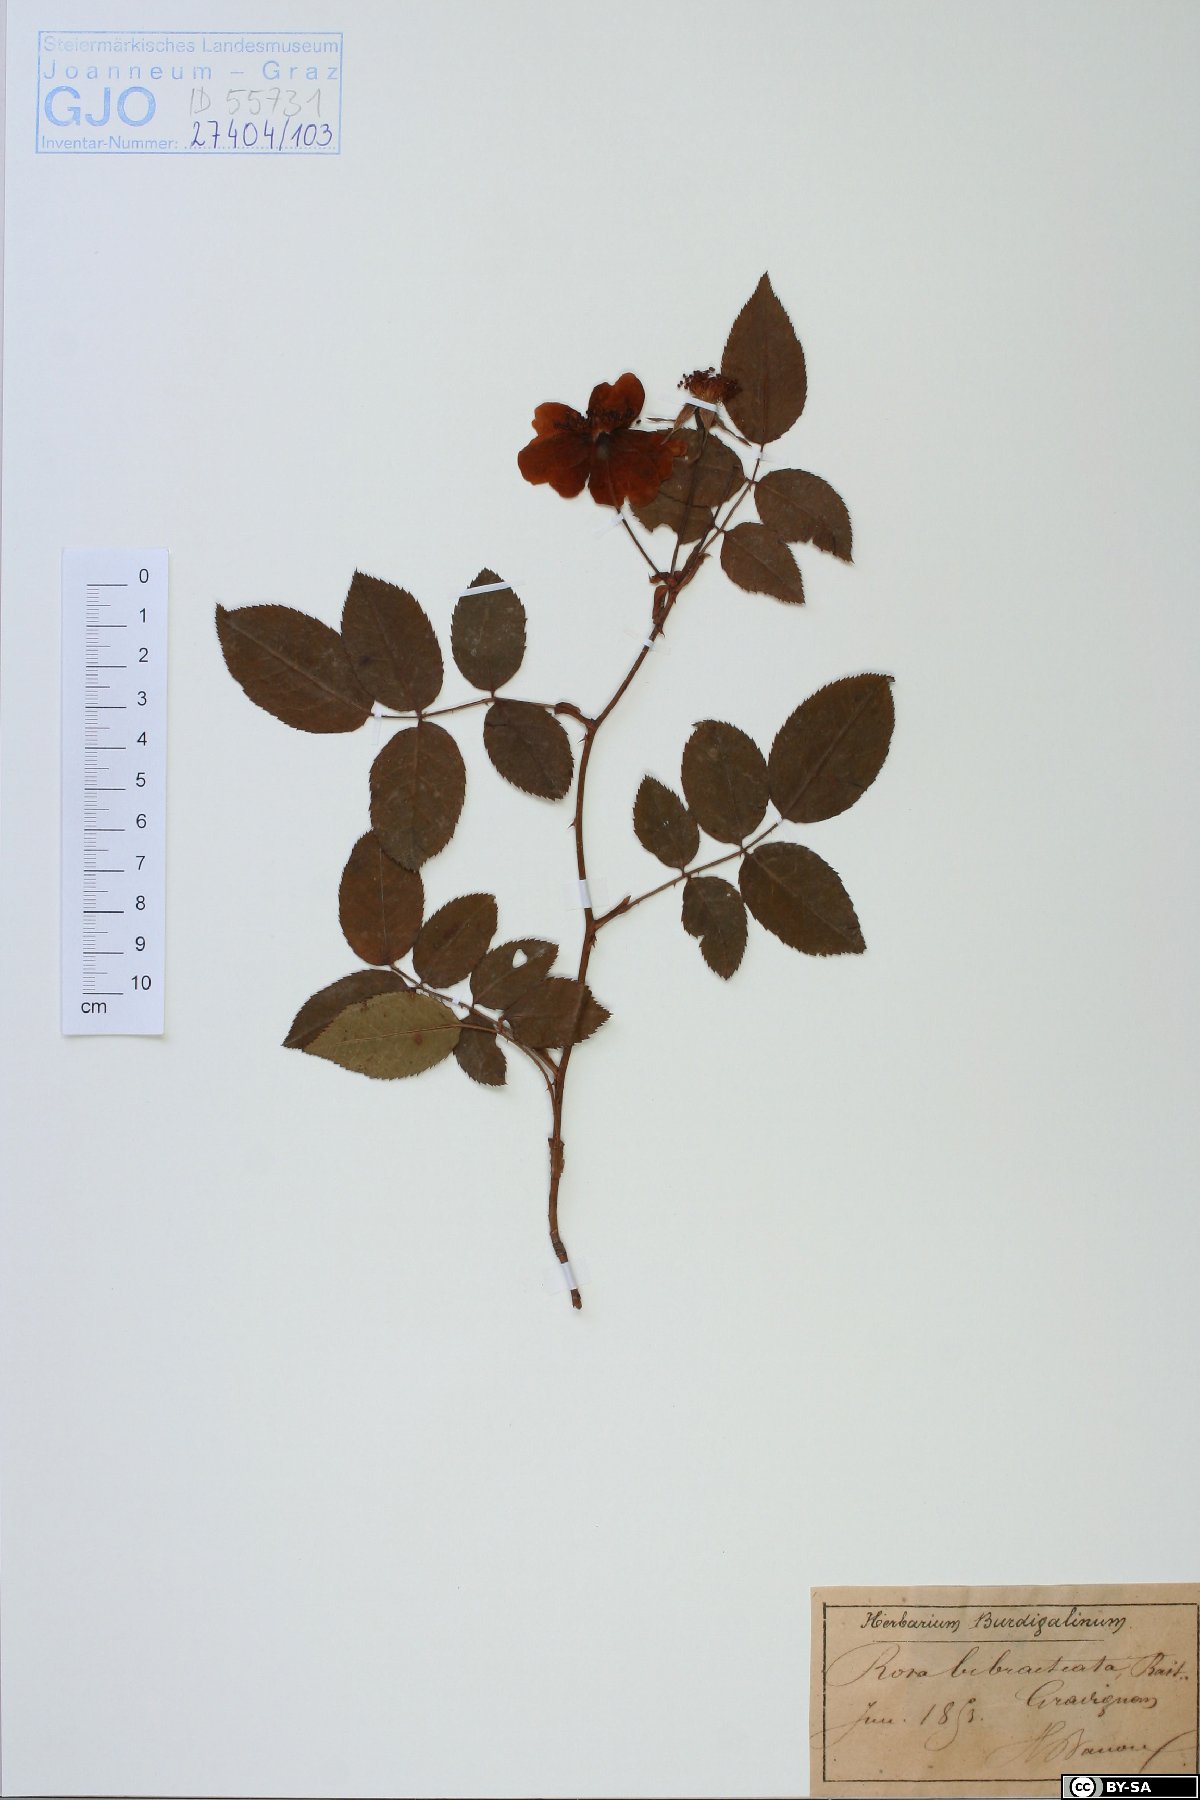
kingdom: Plantae
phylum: Tracheophyta
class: Magnoliopsida
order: Rosales
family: Rosaceae
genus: Rosa
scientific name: Rosa bibracteata
